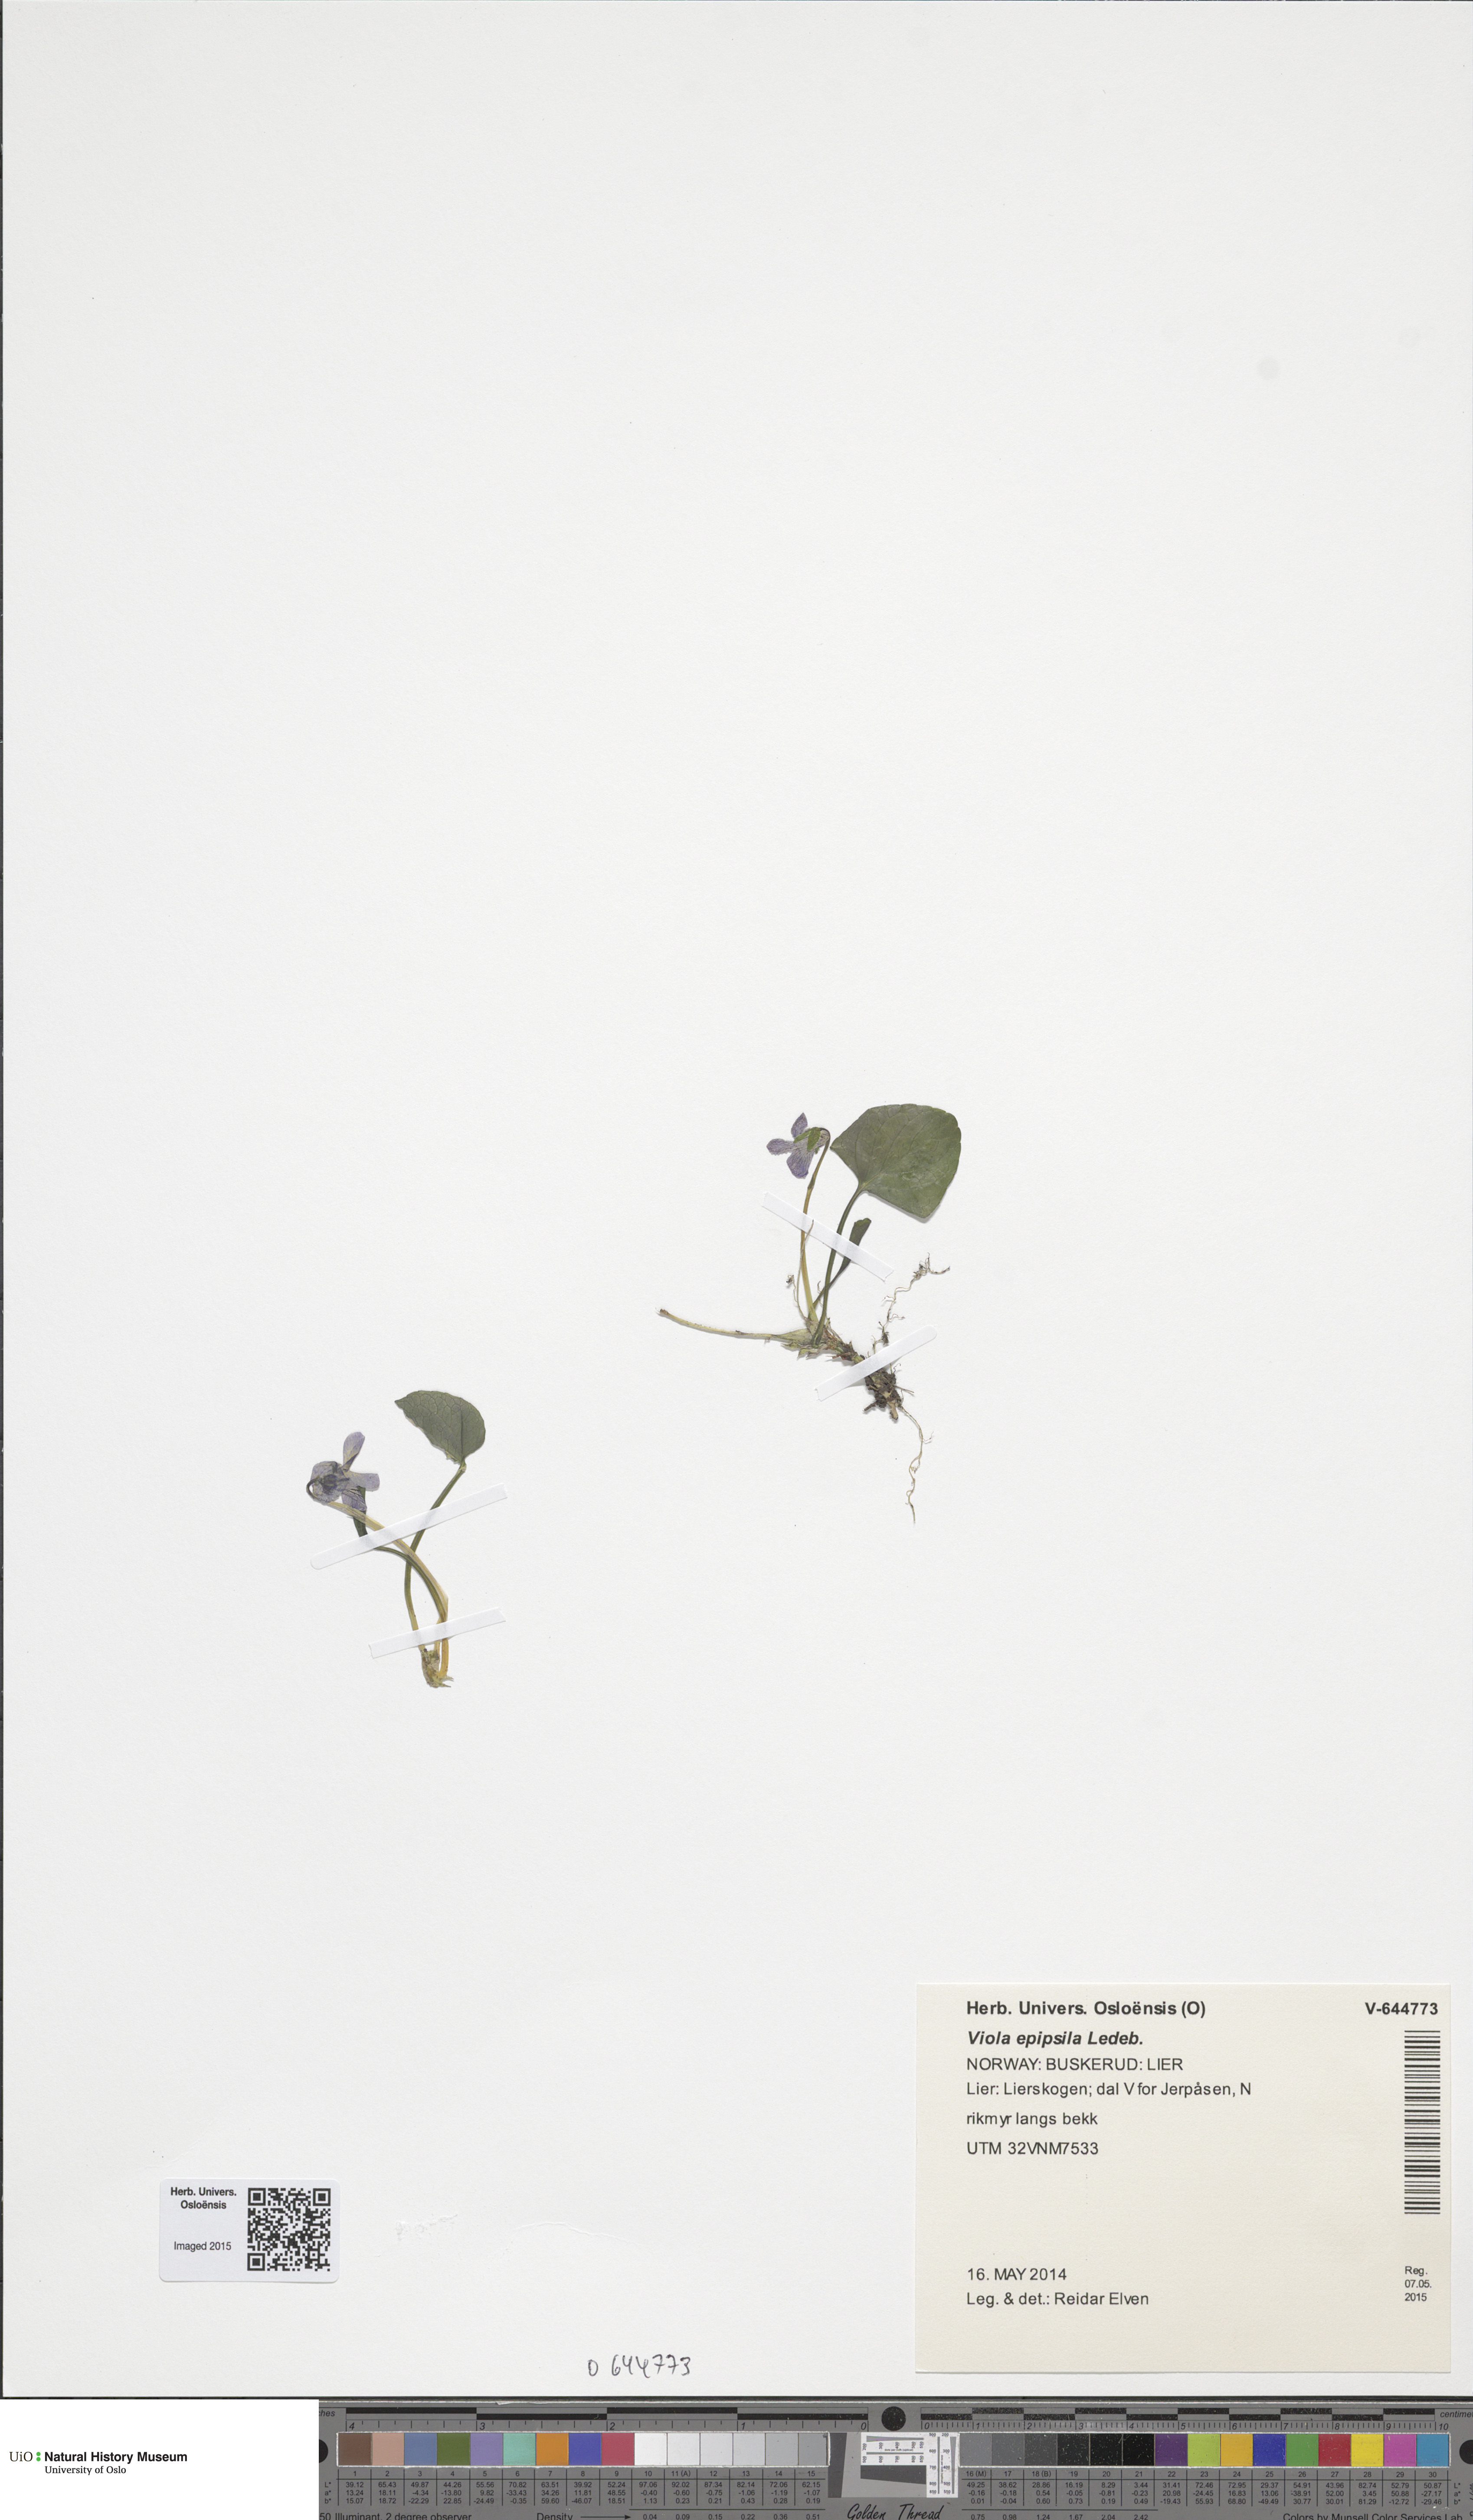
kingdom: Plantae
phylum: Tracheophyta
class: Magnoliopsida
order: Malpighiales
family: Violaceae
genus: Viola
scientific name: Viola epipsila
